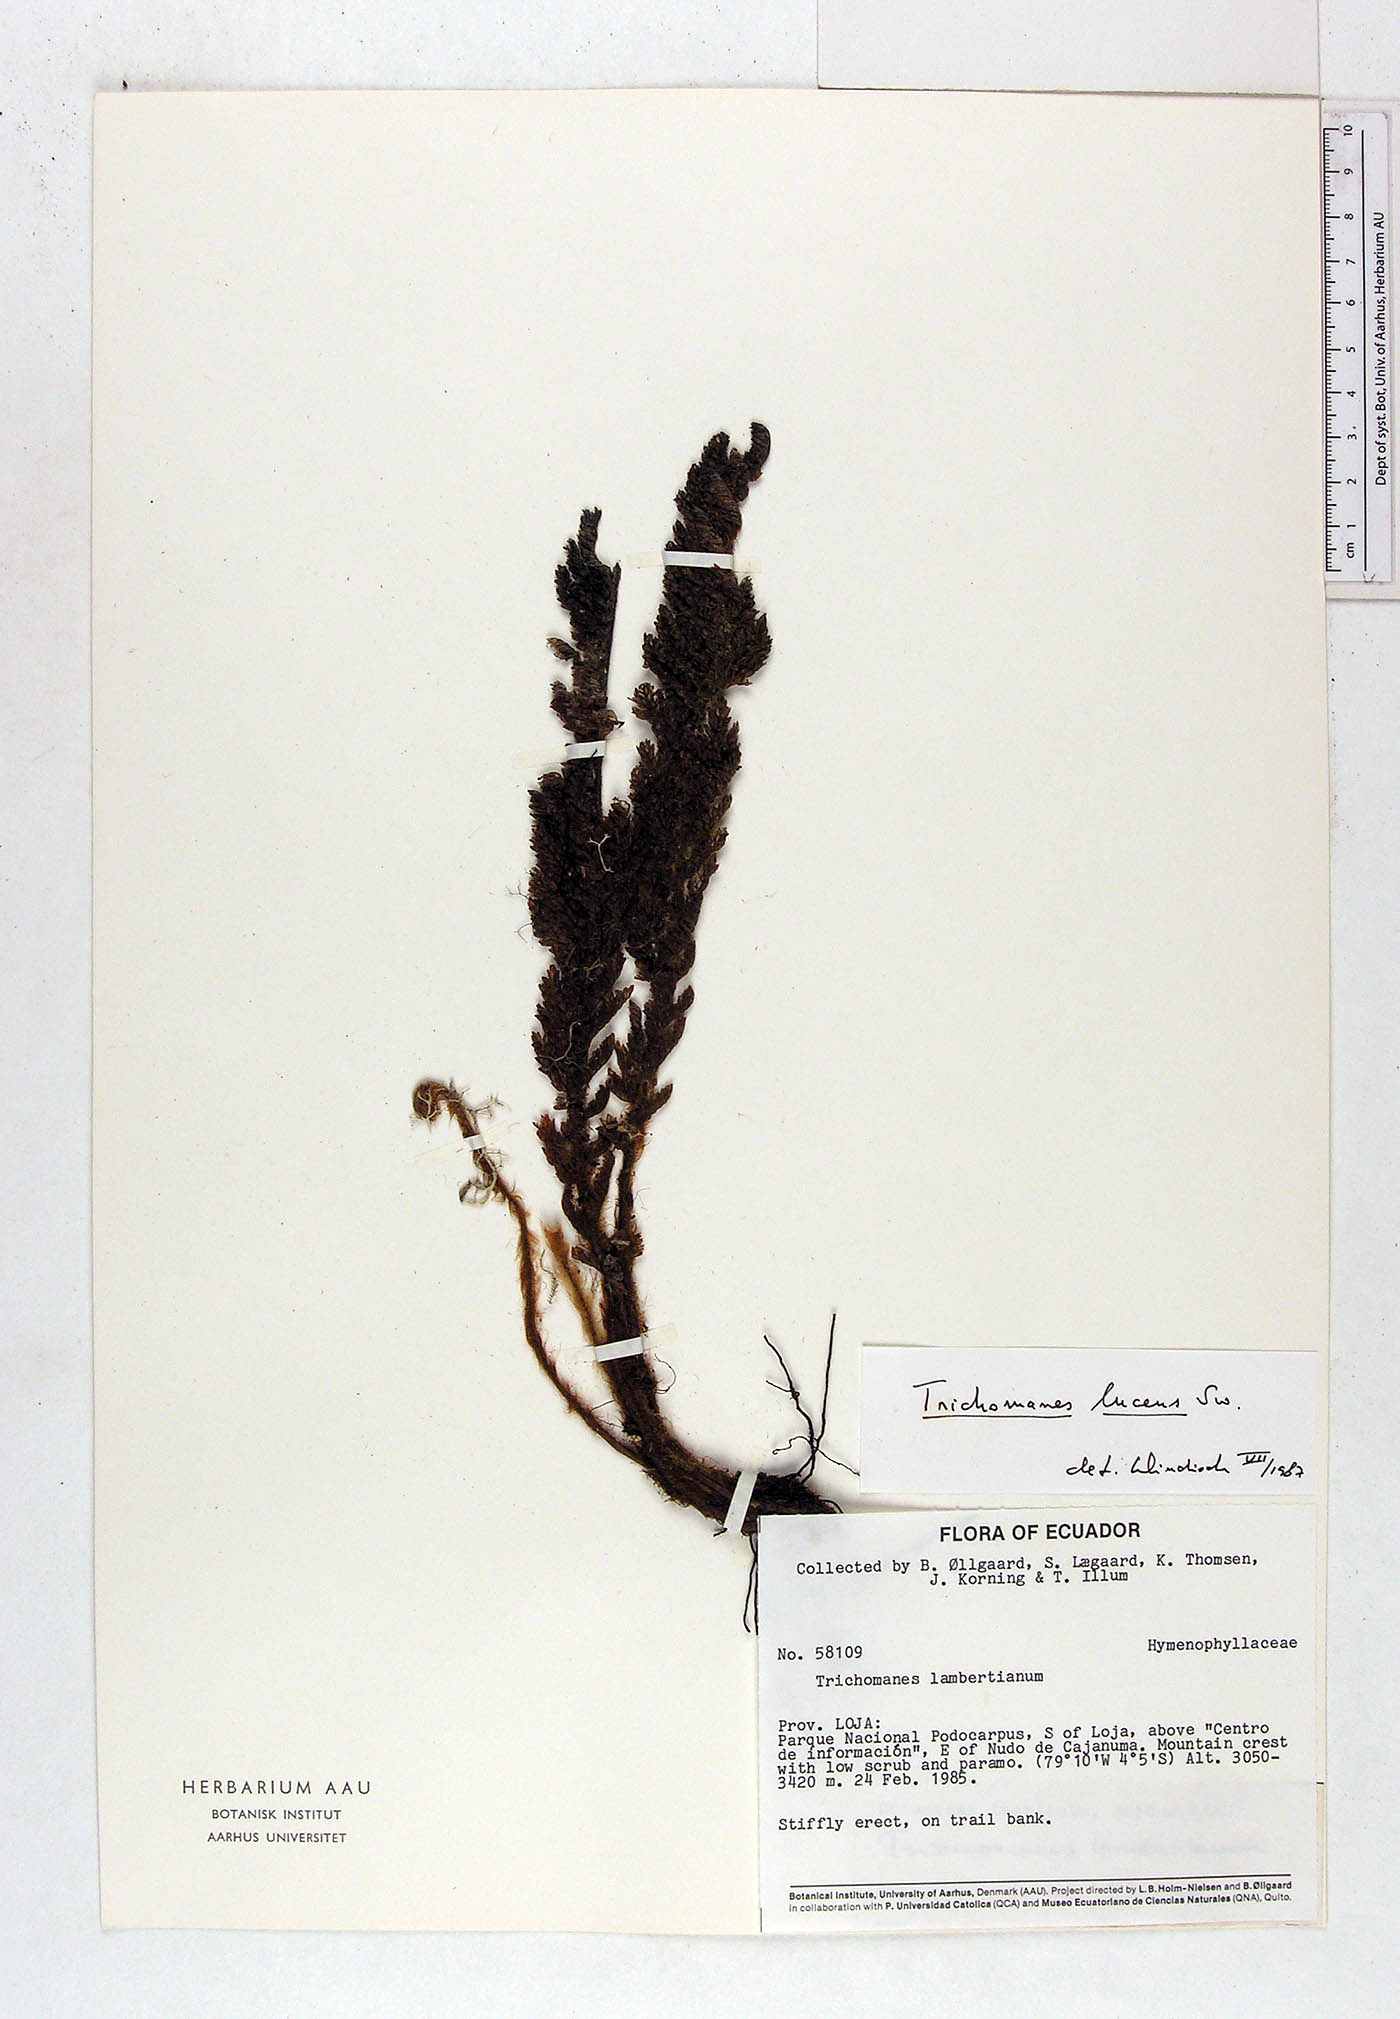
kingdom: Plantae
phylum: Tracheophyta
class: Polypodiopsida
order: Hymenophyllales
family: Hymenophyllaceae
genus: Trichomanes
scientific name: Trichomanes lucens
